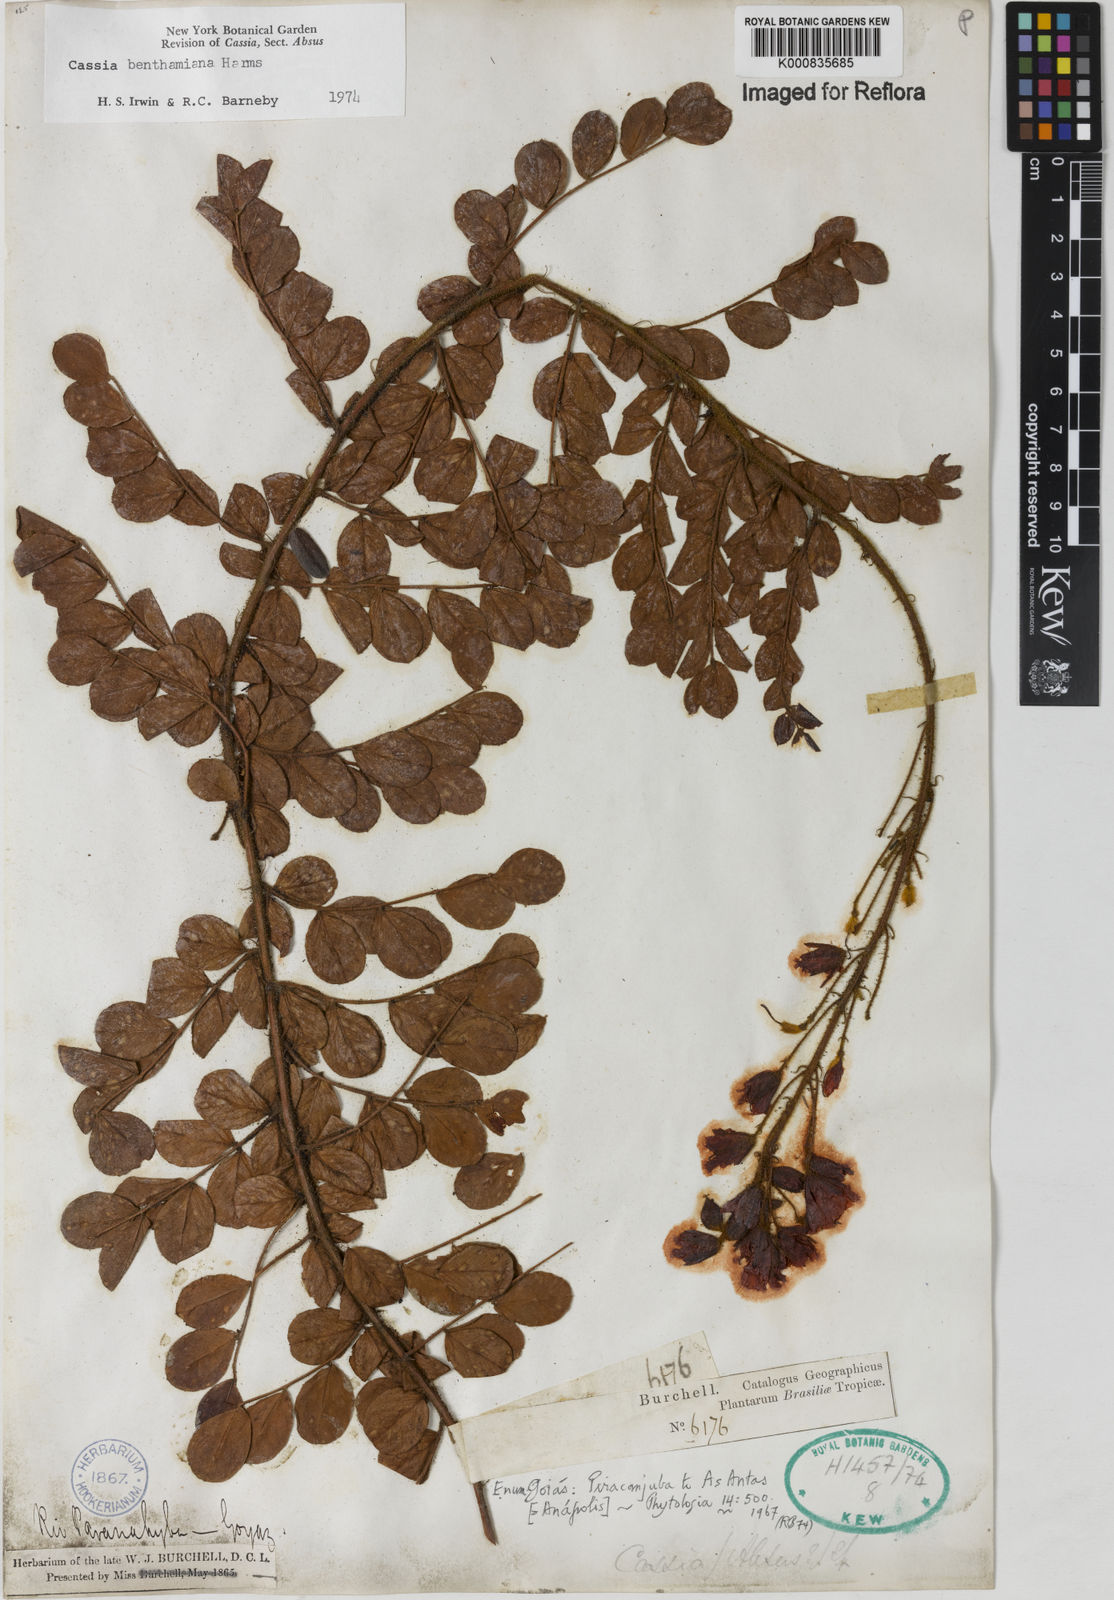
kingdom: Plantae
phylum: Tracheophyta
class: Magnoliopsida
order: Fabales
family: Fabaceae
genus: Chamaecrista
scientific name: Chamaecrista benthamiana
